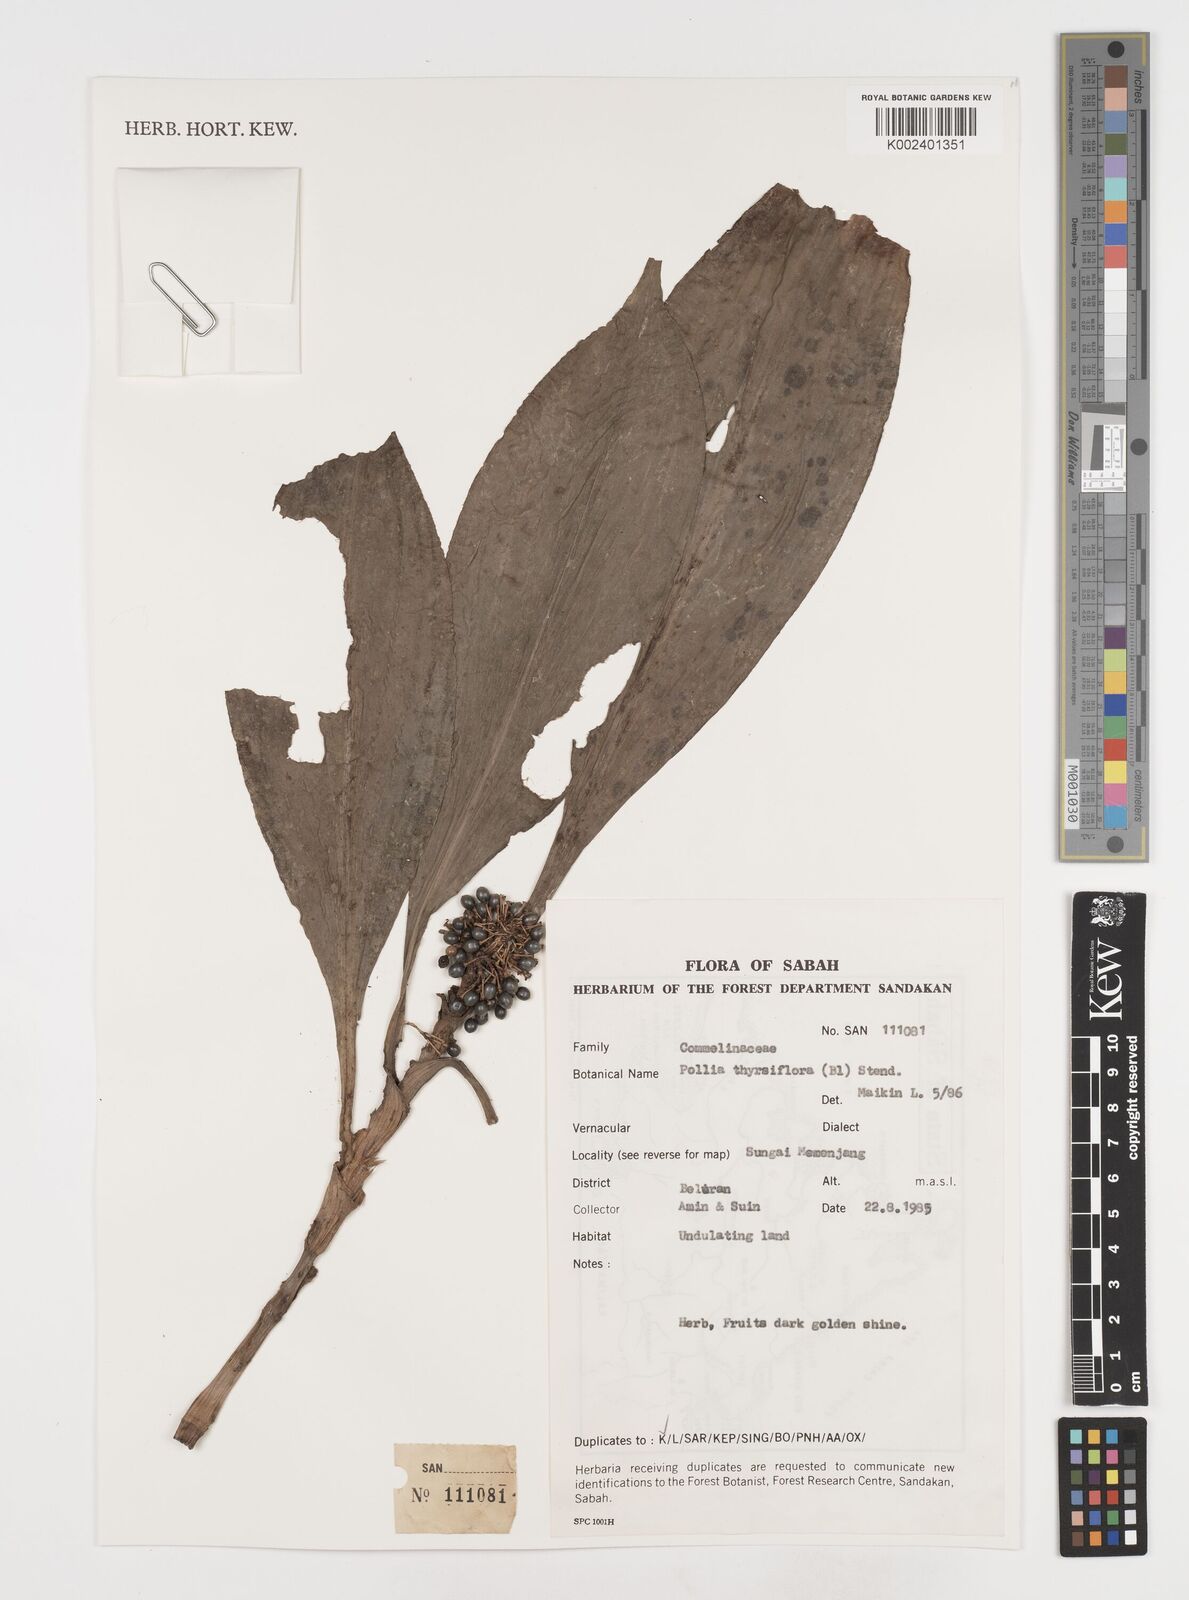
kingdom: Plantae
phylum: Tracheophyta
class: Liliopsida
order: Commelinales
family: Commelinaceae
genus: Pollia
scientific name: Pollia thyrsiflora
